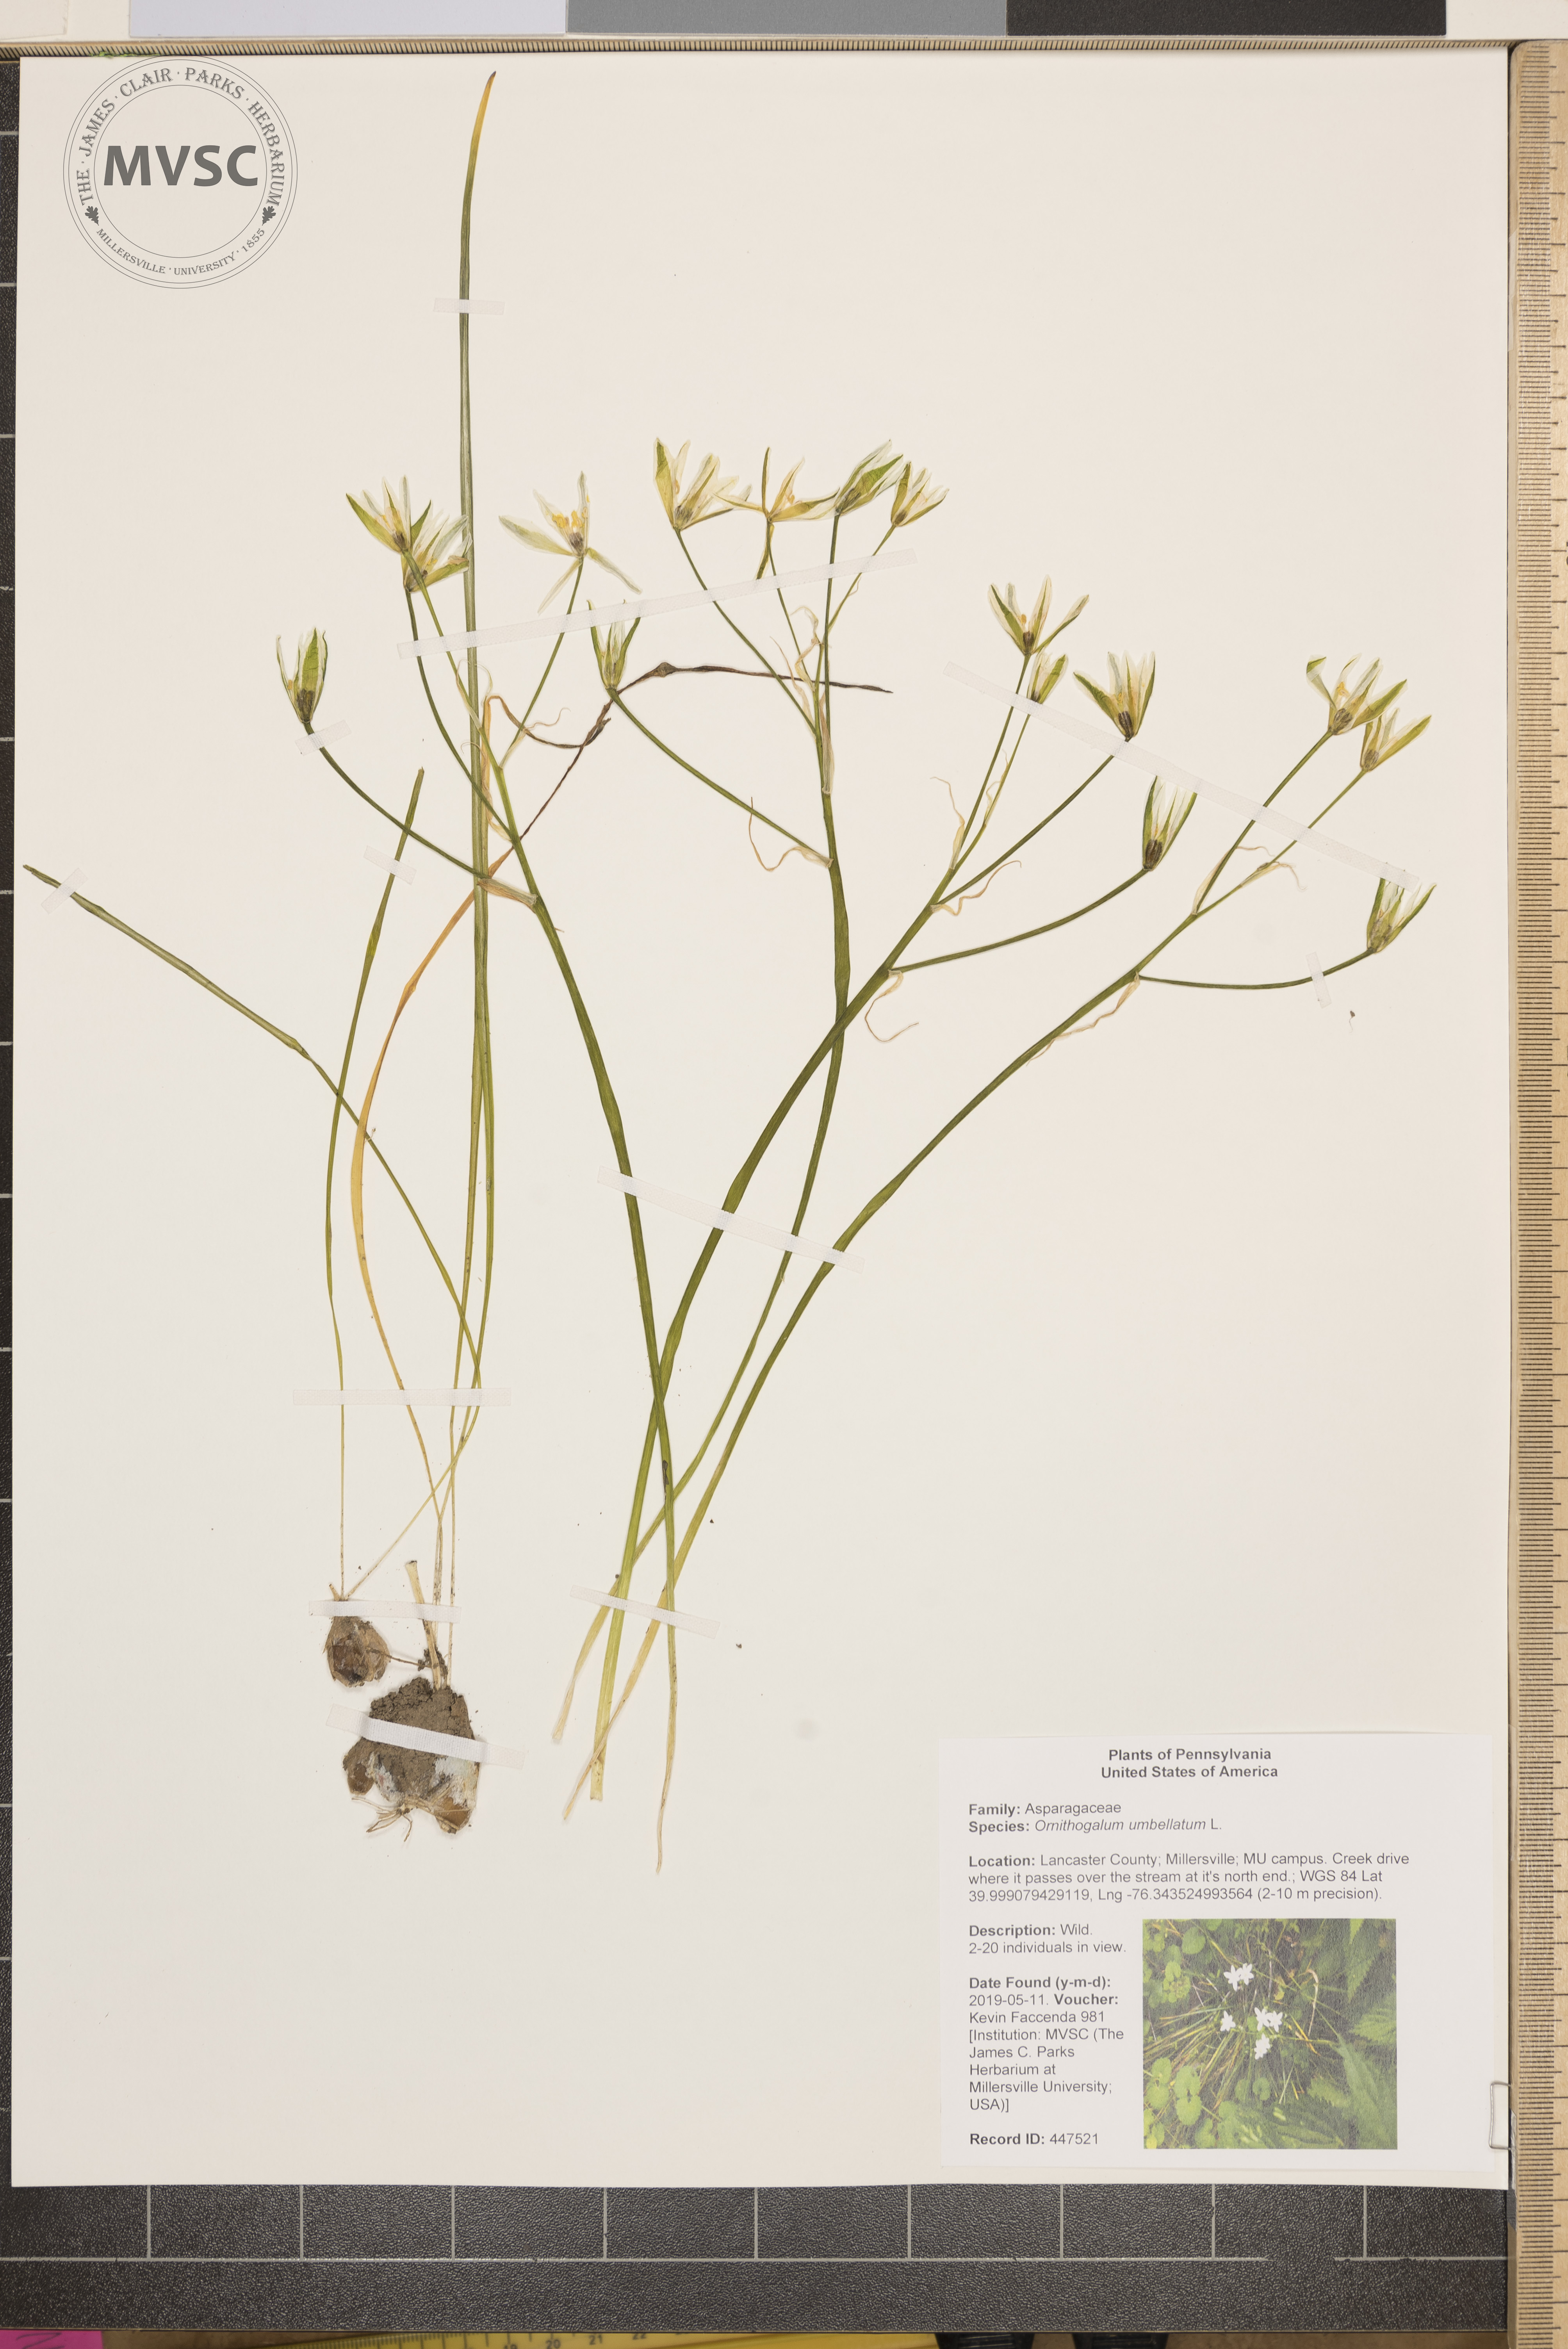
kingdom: Plantae
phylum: Tracheophyta
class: Liliopsida
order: Asparagales
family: Asparagaceae
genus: Ornithogalum
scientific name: Ornithogalum umbellatum
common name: Garden star-of-bethlehem
